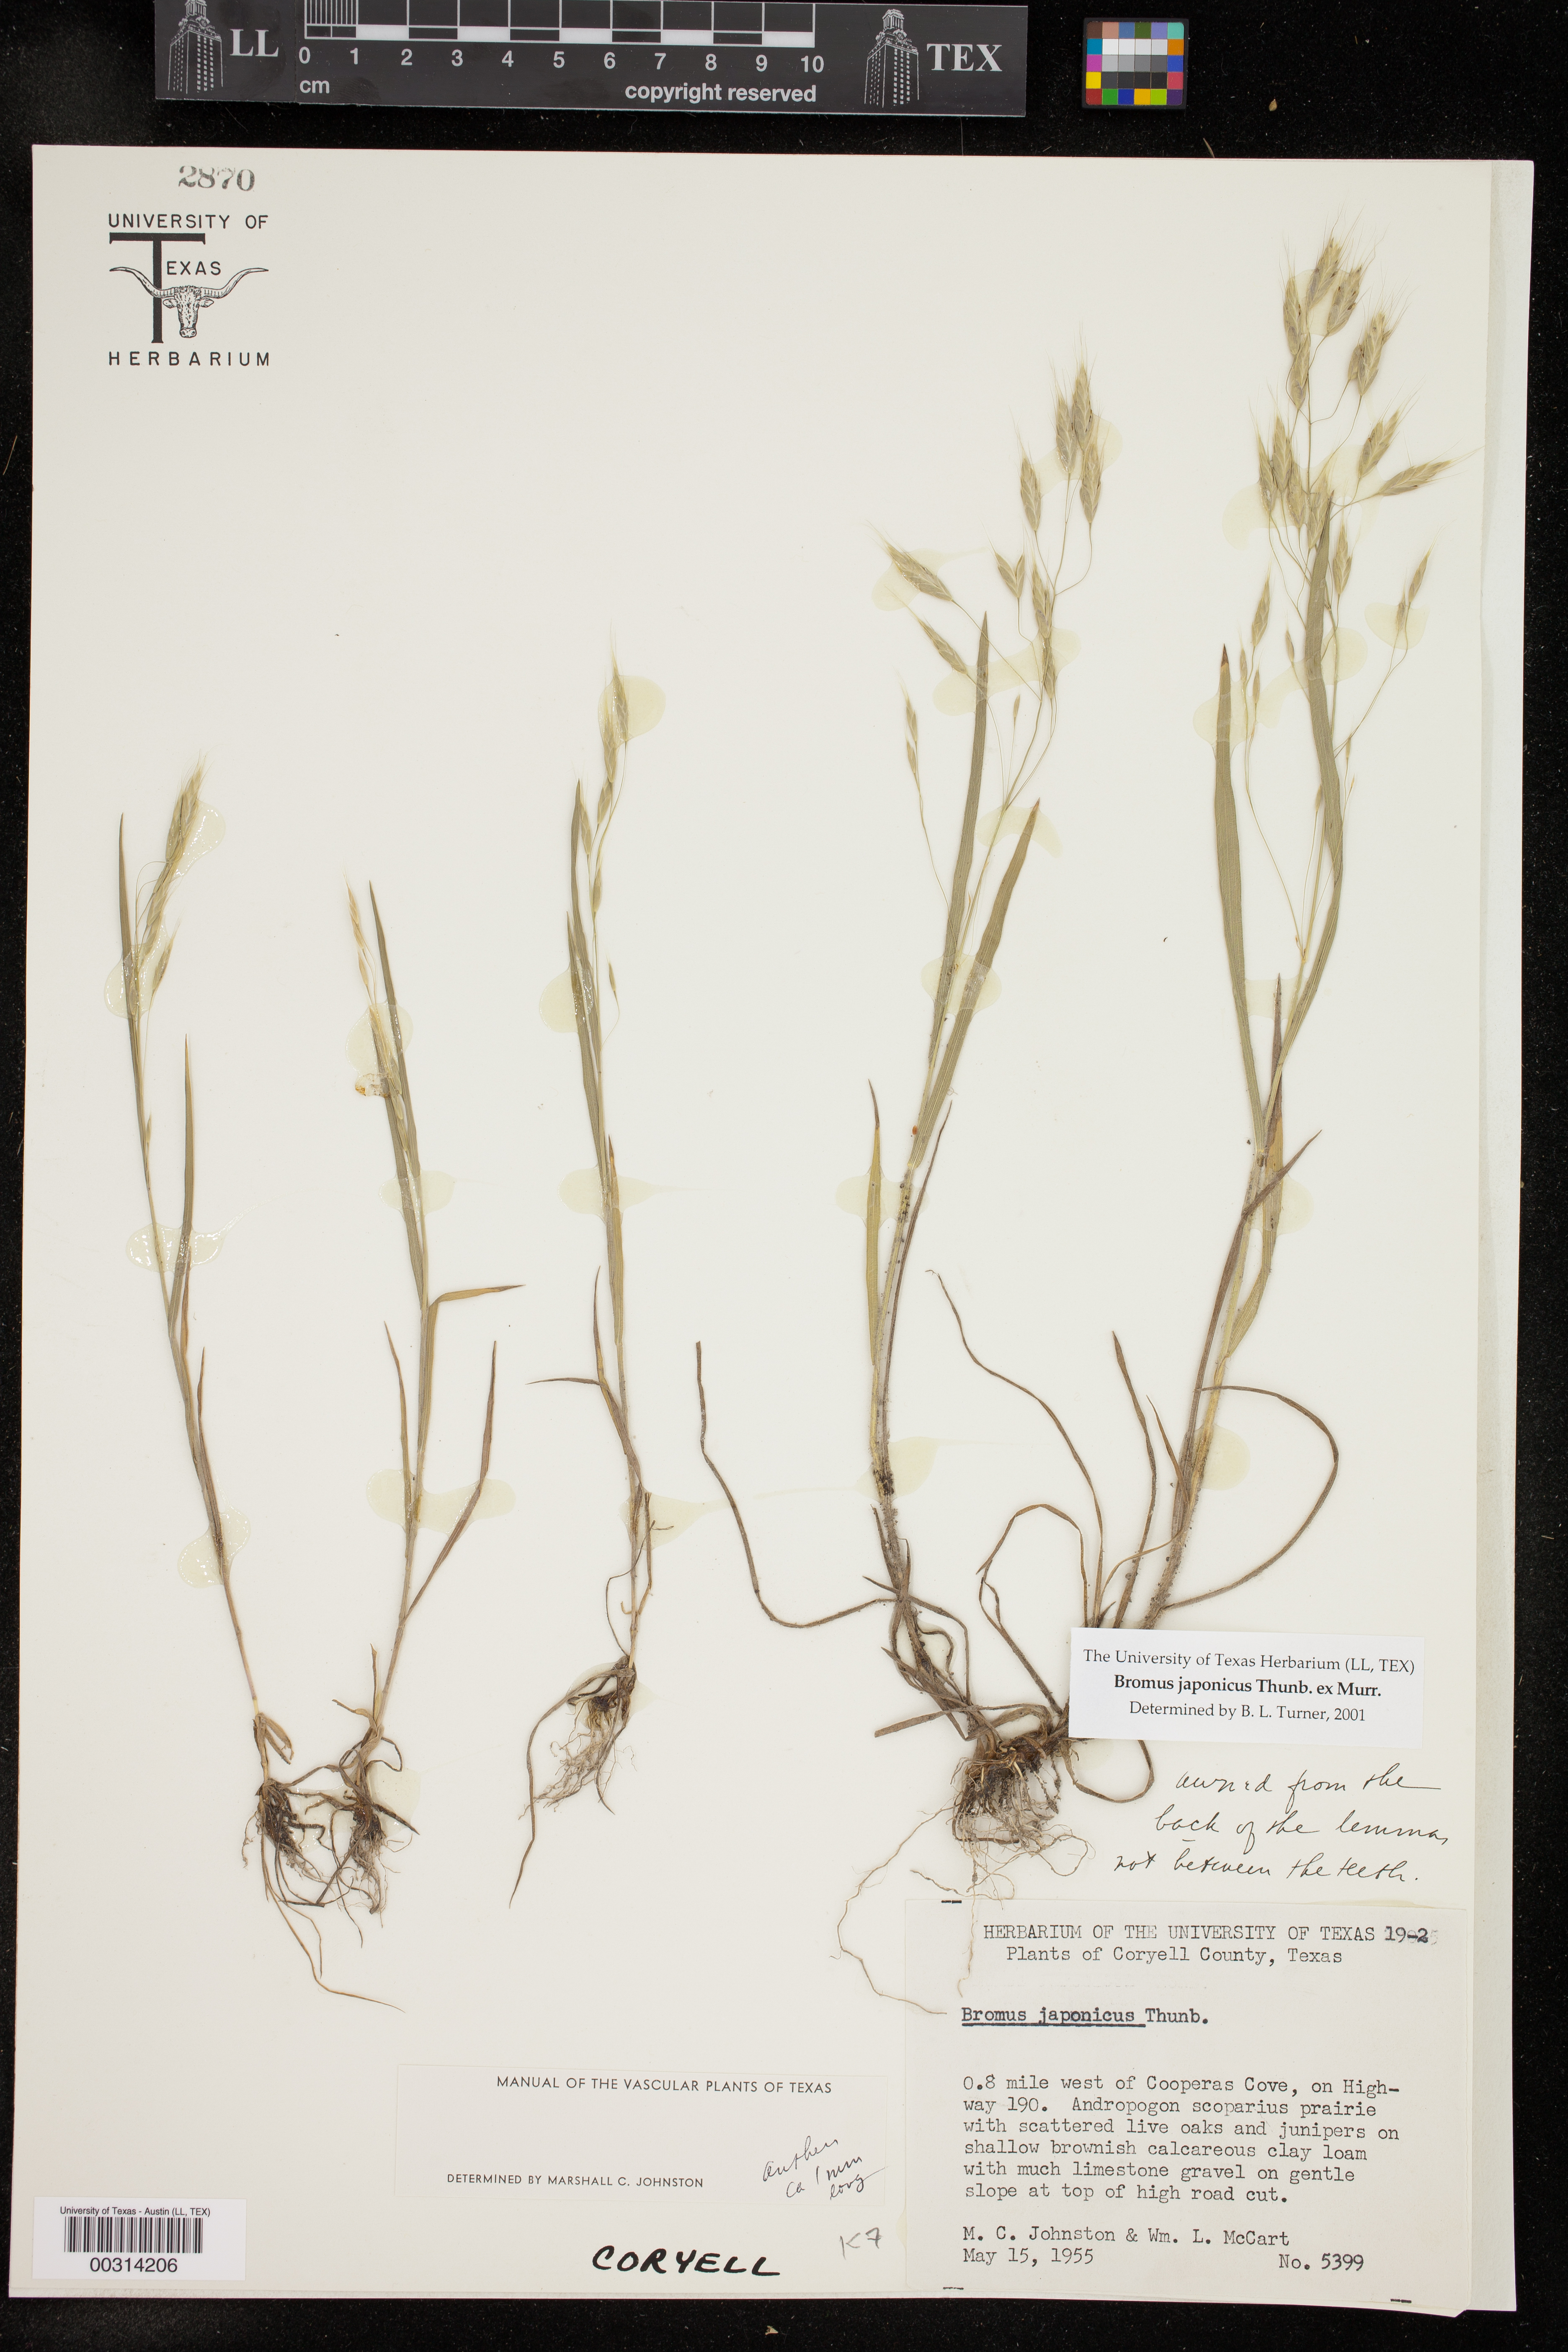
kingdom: Plantae
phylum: Tracheophyta
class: Liliopsida
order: Poales
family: Poaceae
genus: Bromus
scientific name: Bromus japonicus
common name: Japanese brome
